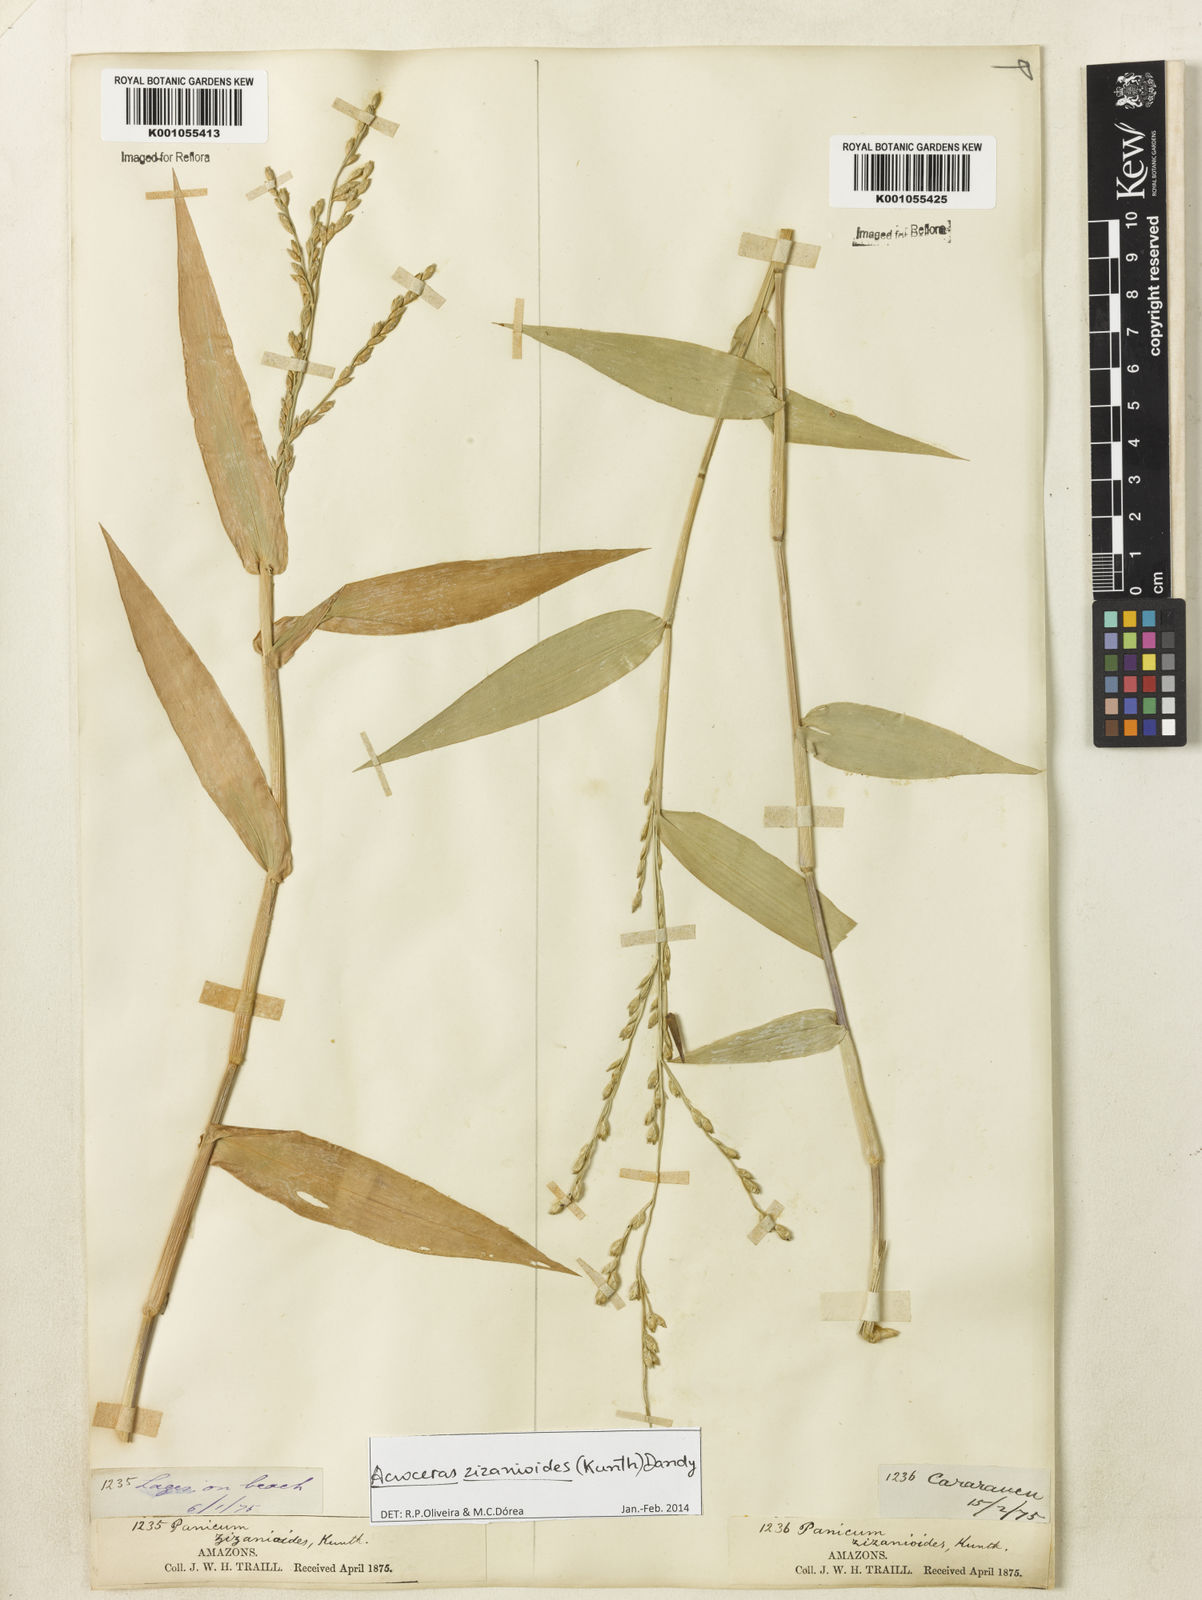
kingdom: Plantae
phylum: Tracheophyta
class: Liliopsida
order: Poales
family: Poaceae
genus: Acroceras
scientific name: Acroceras zizanioides
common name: Oat grass
